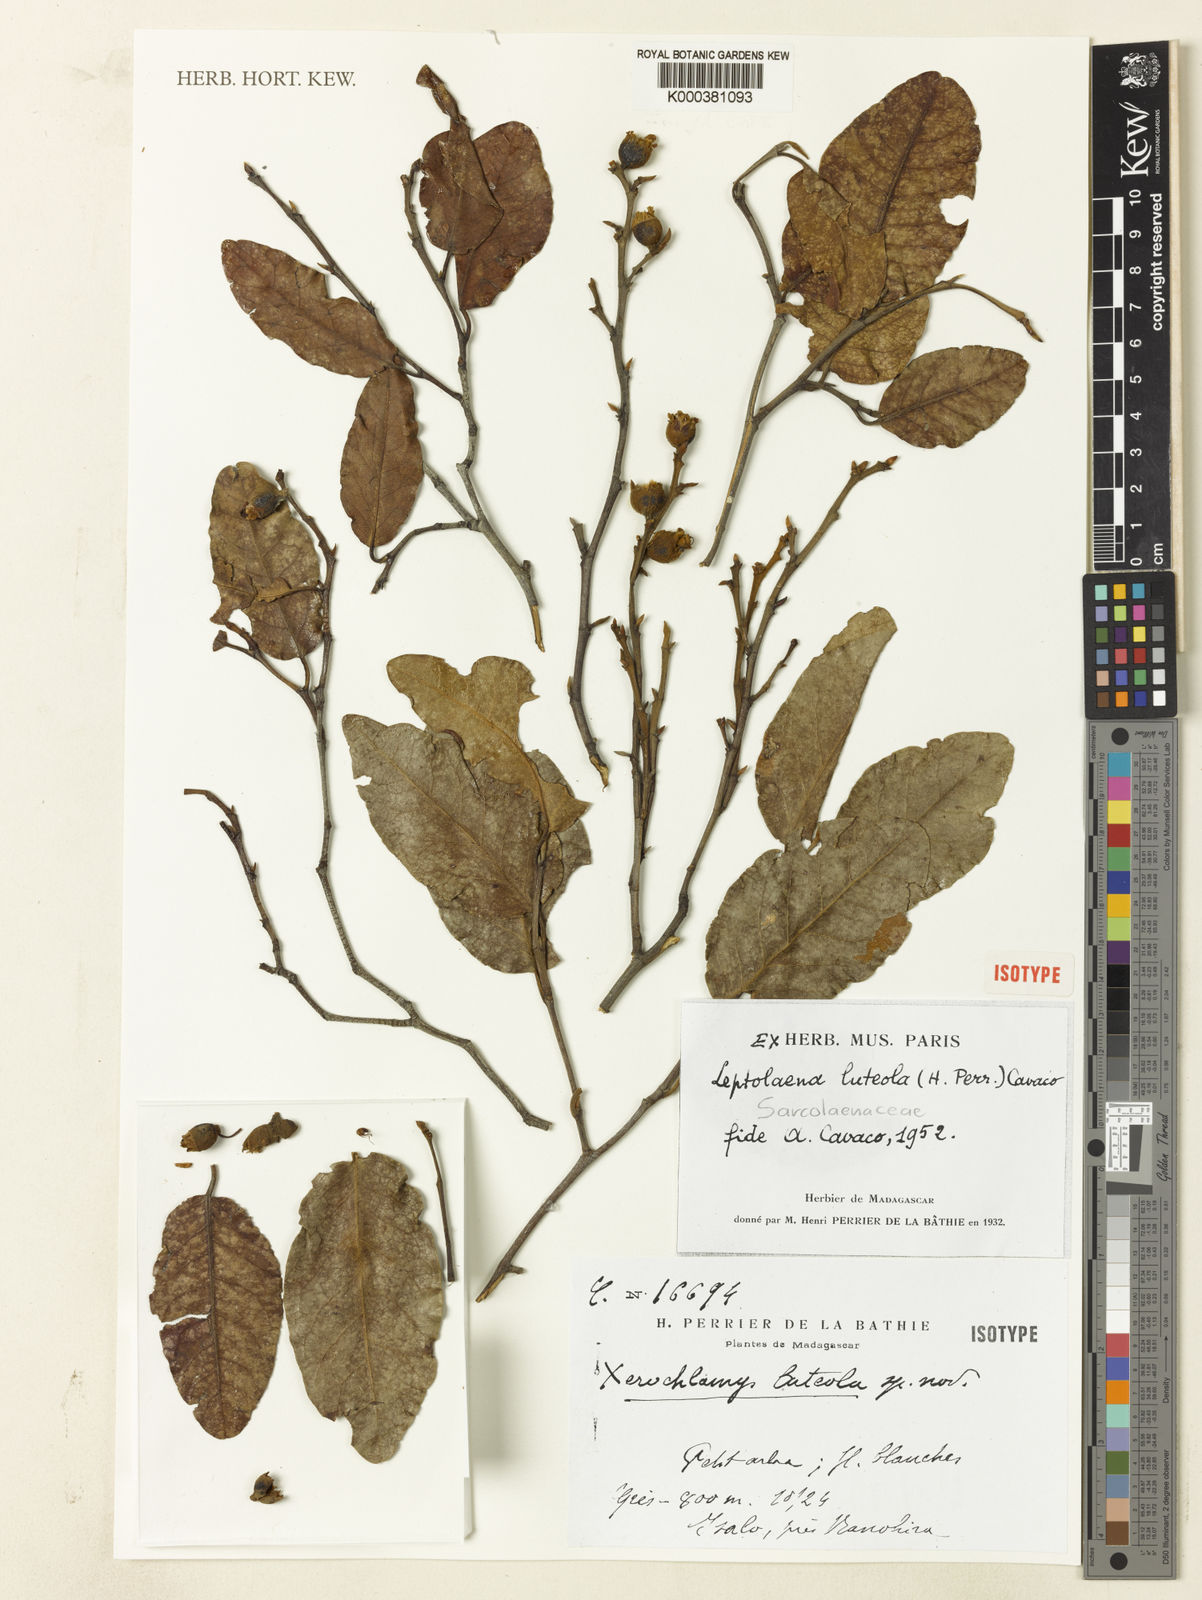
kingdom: Plantae
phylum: Tracheophyta
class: Magnoliopsida
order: Malvales
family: Sarcolaenaceae
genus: Leptolaena
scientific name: Leptolaena
